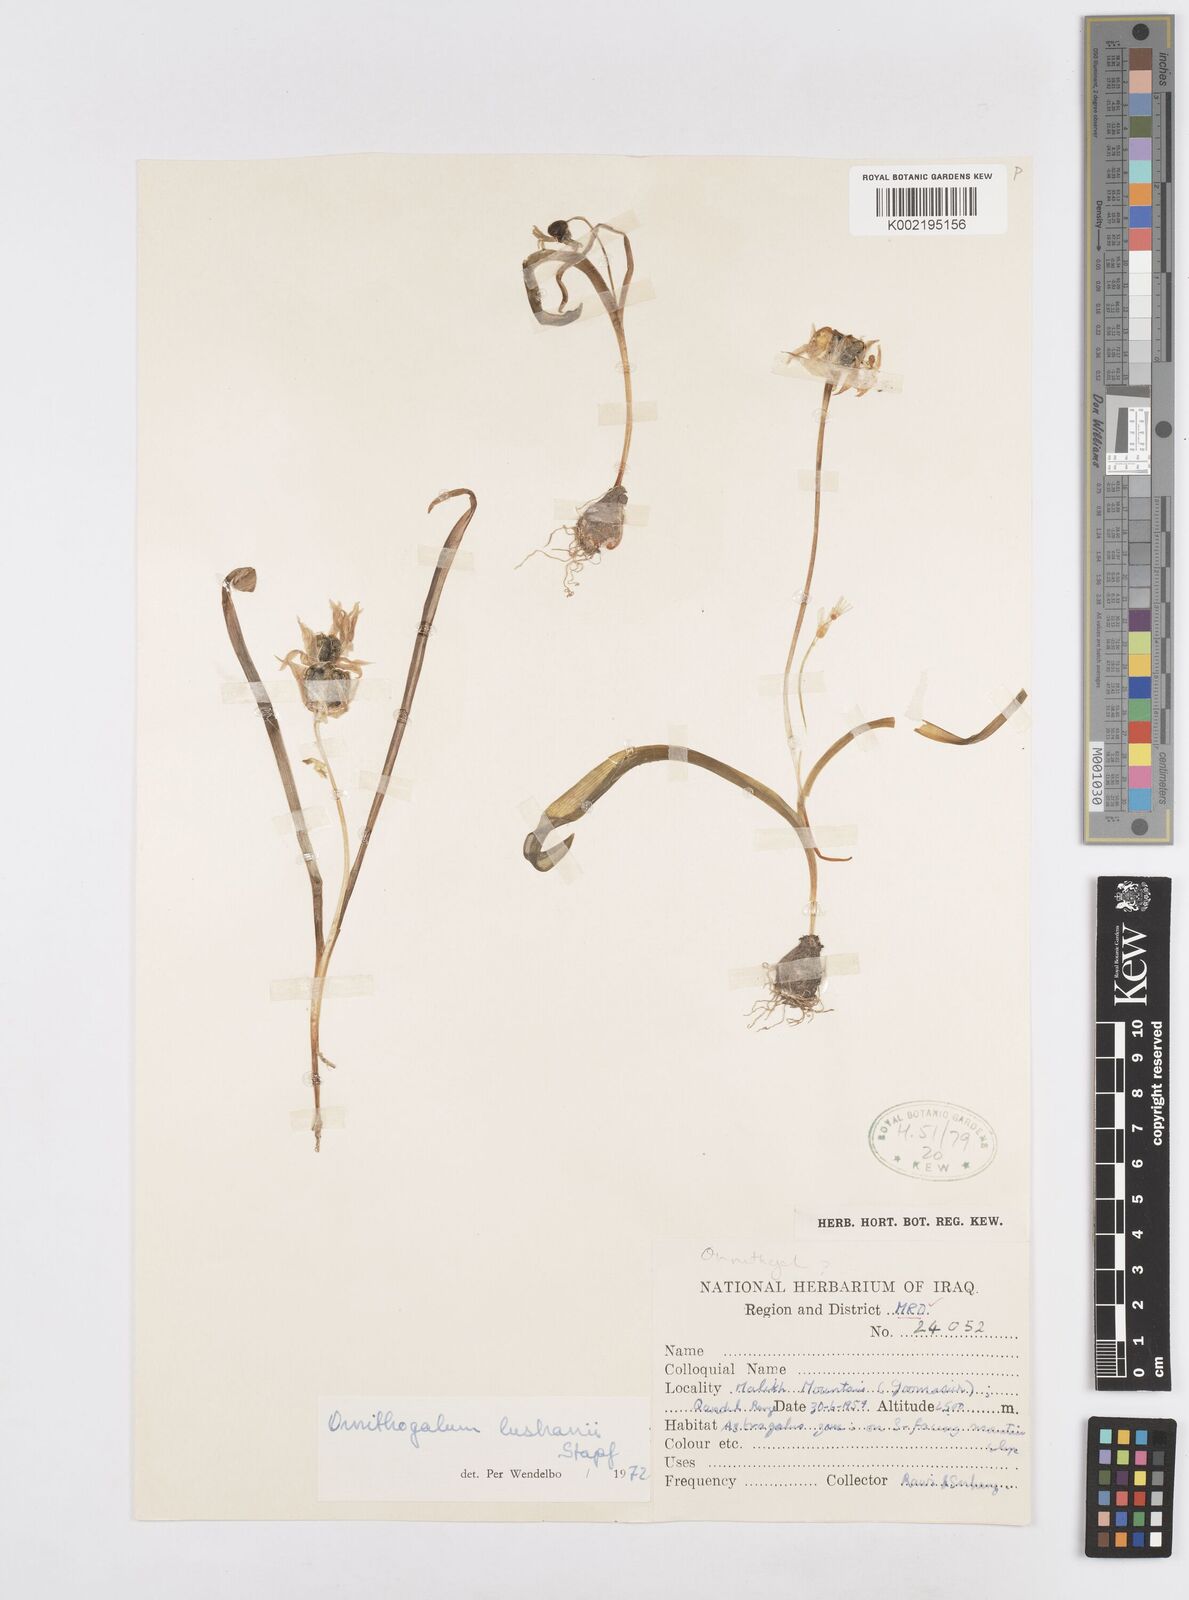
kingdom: Plantae
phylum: Tracheophyta
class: Liliopsida
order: Asparagales
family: Asparagaceae
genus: Ornithogalum
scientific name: Ornithogalum luschanii
